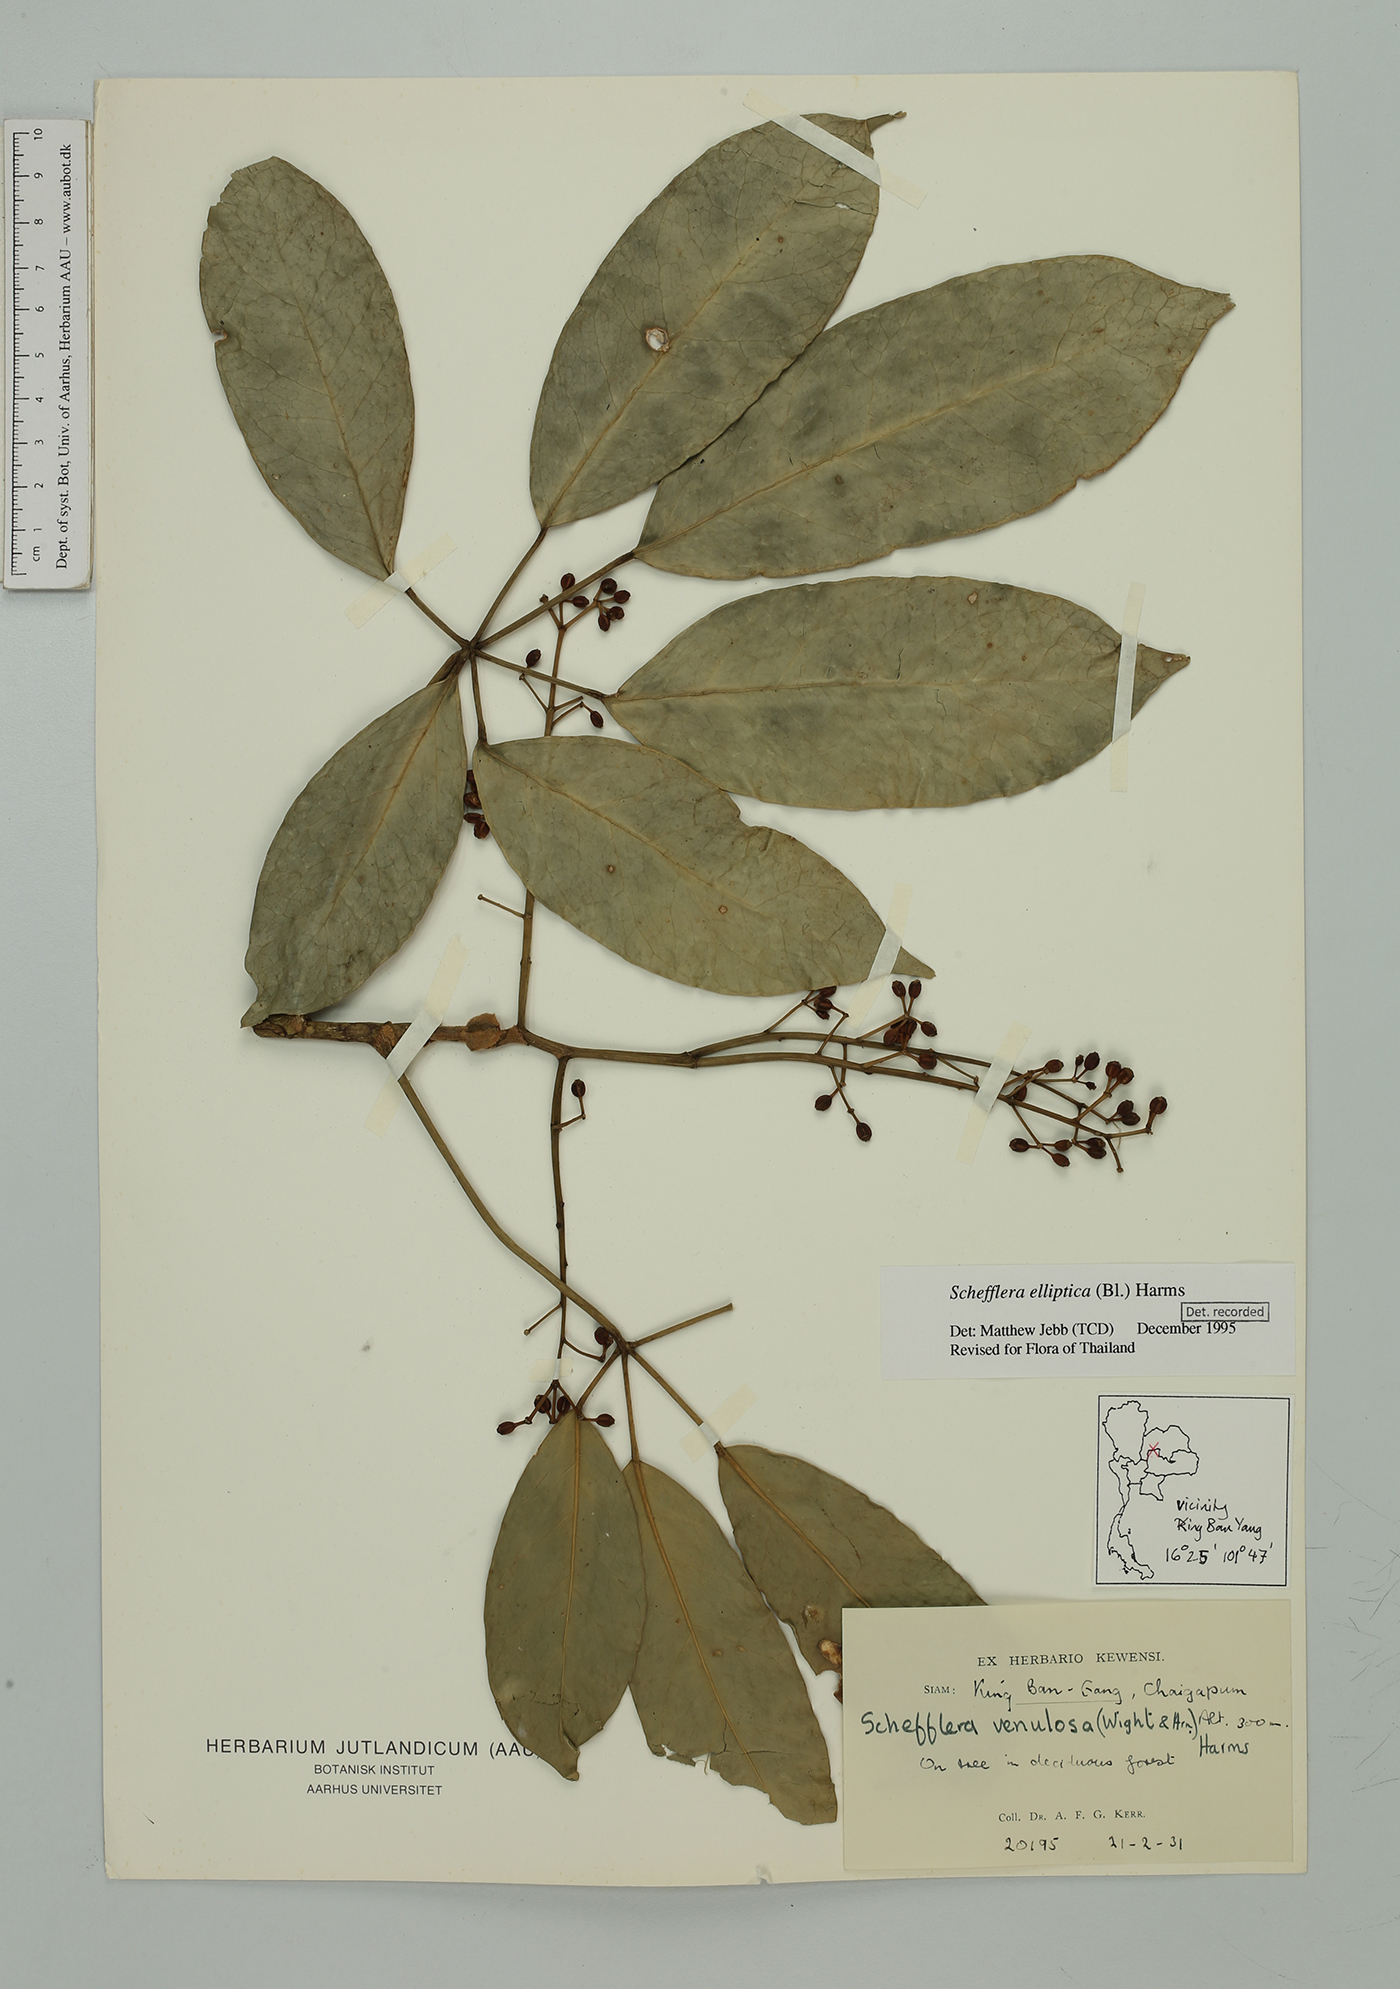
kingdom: Plantae
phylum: Tracheophyta
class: Magnoliopsida
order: Apiales
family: Araliaceae
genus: Heptapleurum
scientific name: Heptapleurum ellipticum
